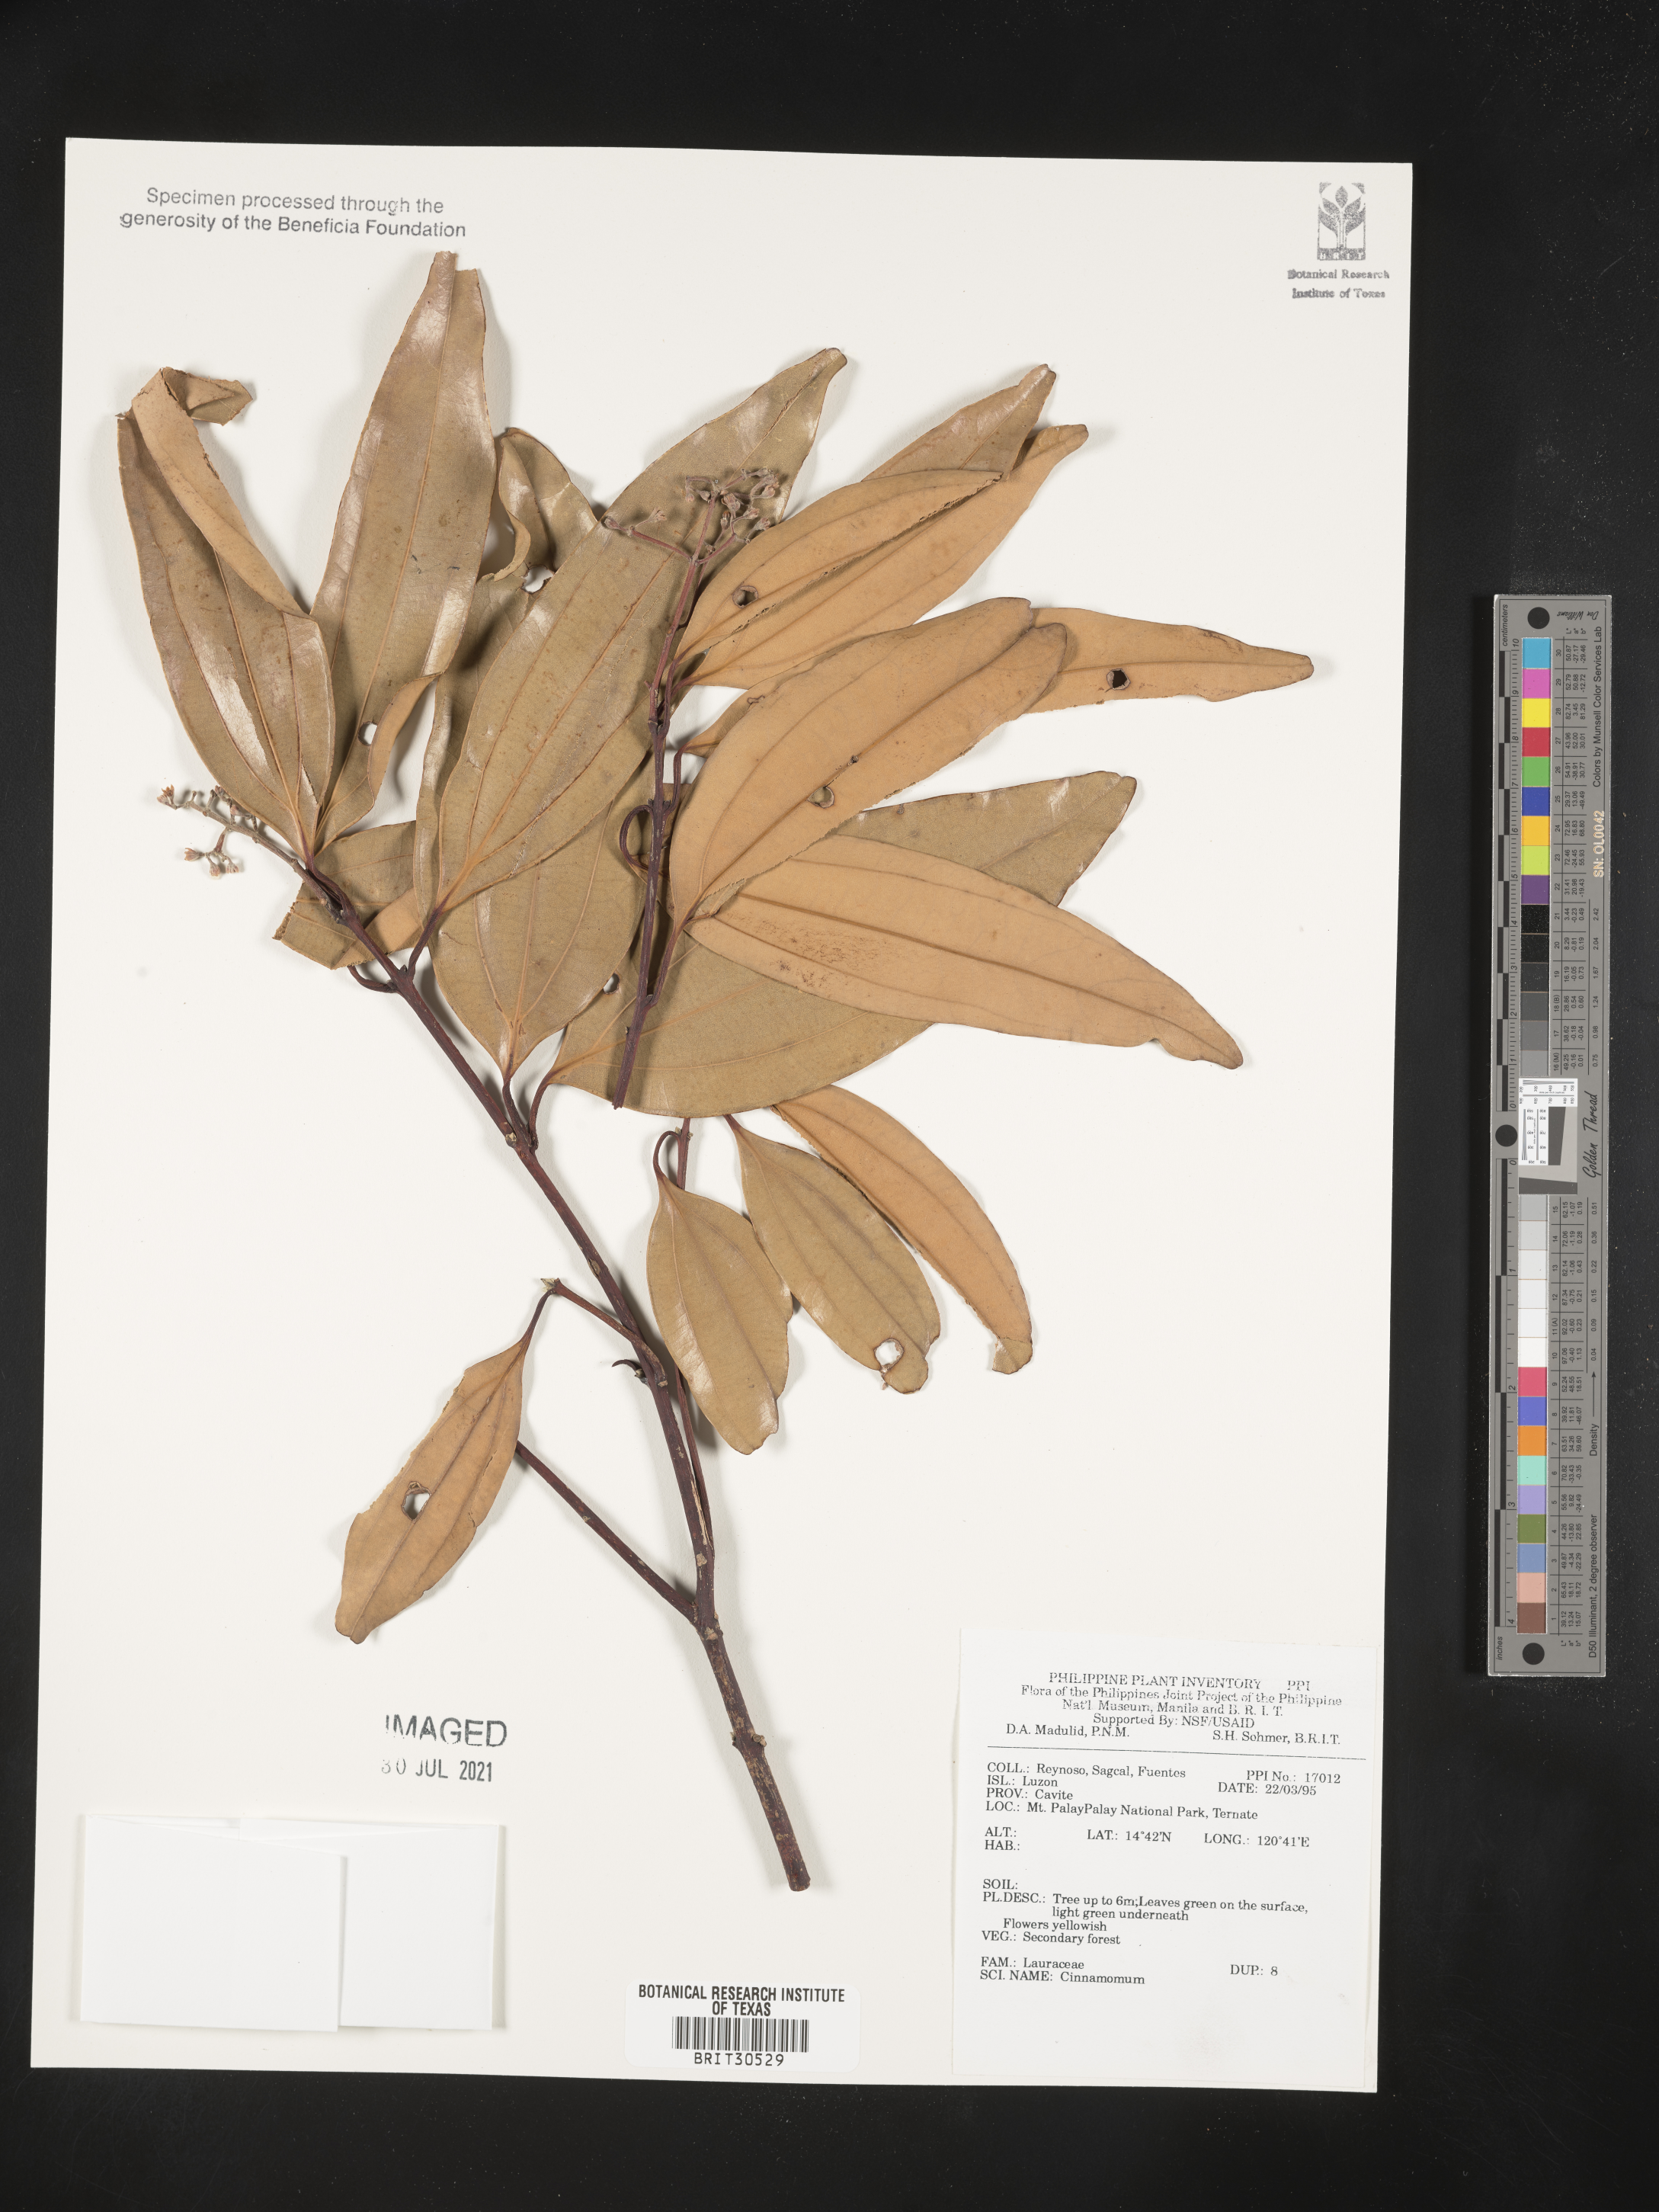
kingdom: Plantae
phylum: Tracheophyta
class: Magnoliopsida
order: Laurales
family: Lauraceae
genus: Cinnamomum
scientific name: Cinnamomum
